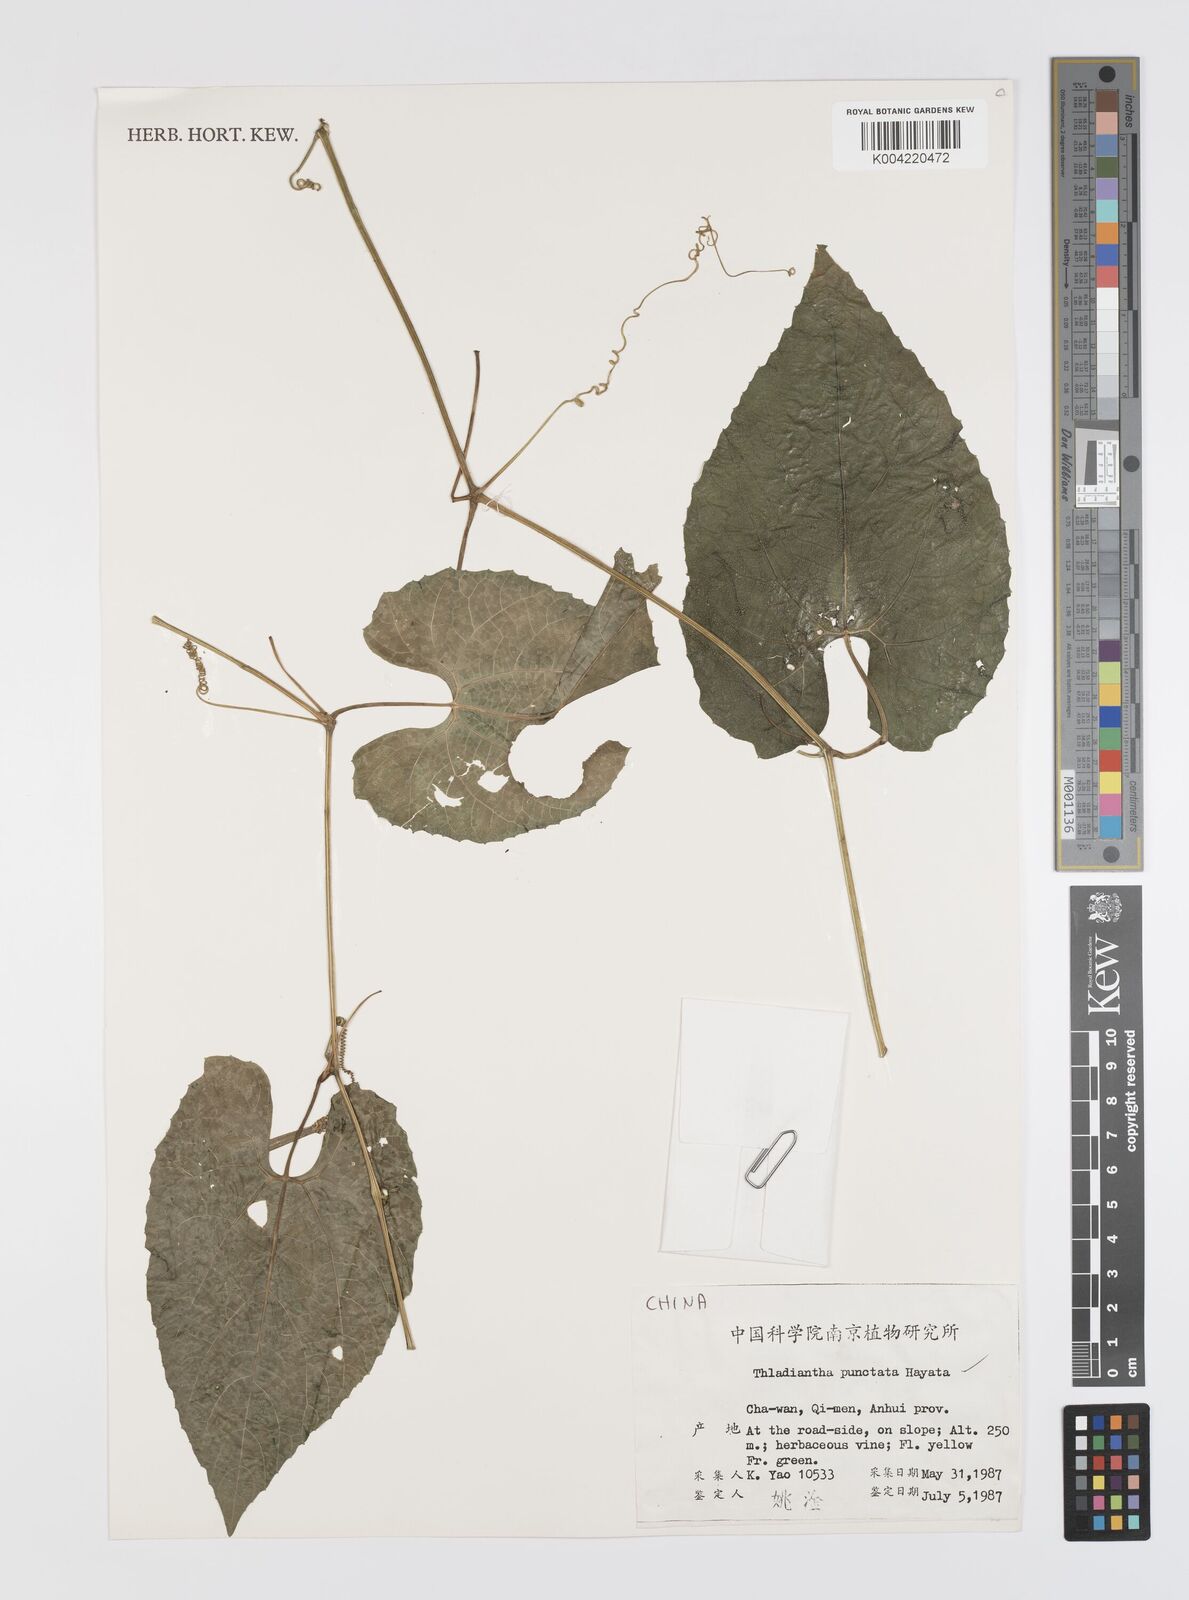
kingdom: Plantae
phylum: Tracheophyta
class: Magnoliopsida
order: Cucurbitales
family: Cucurbitaceae
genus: Thladiantha
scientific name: Thladiantha punctata
